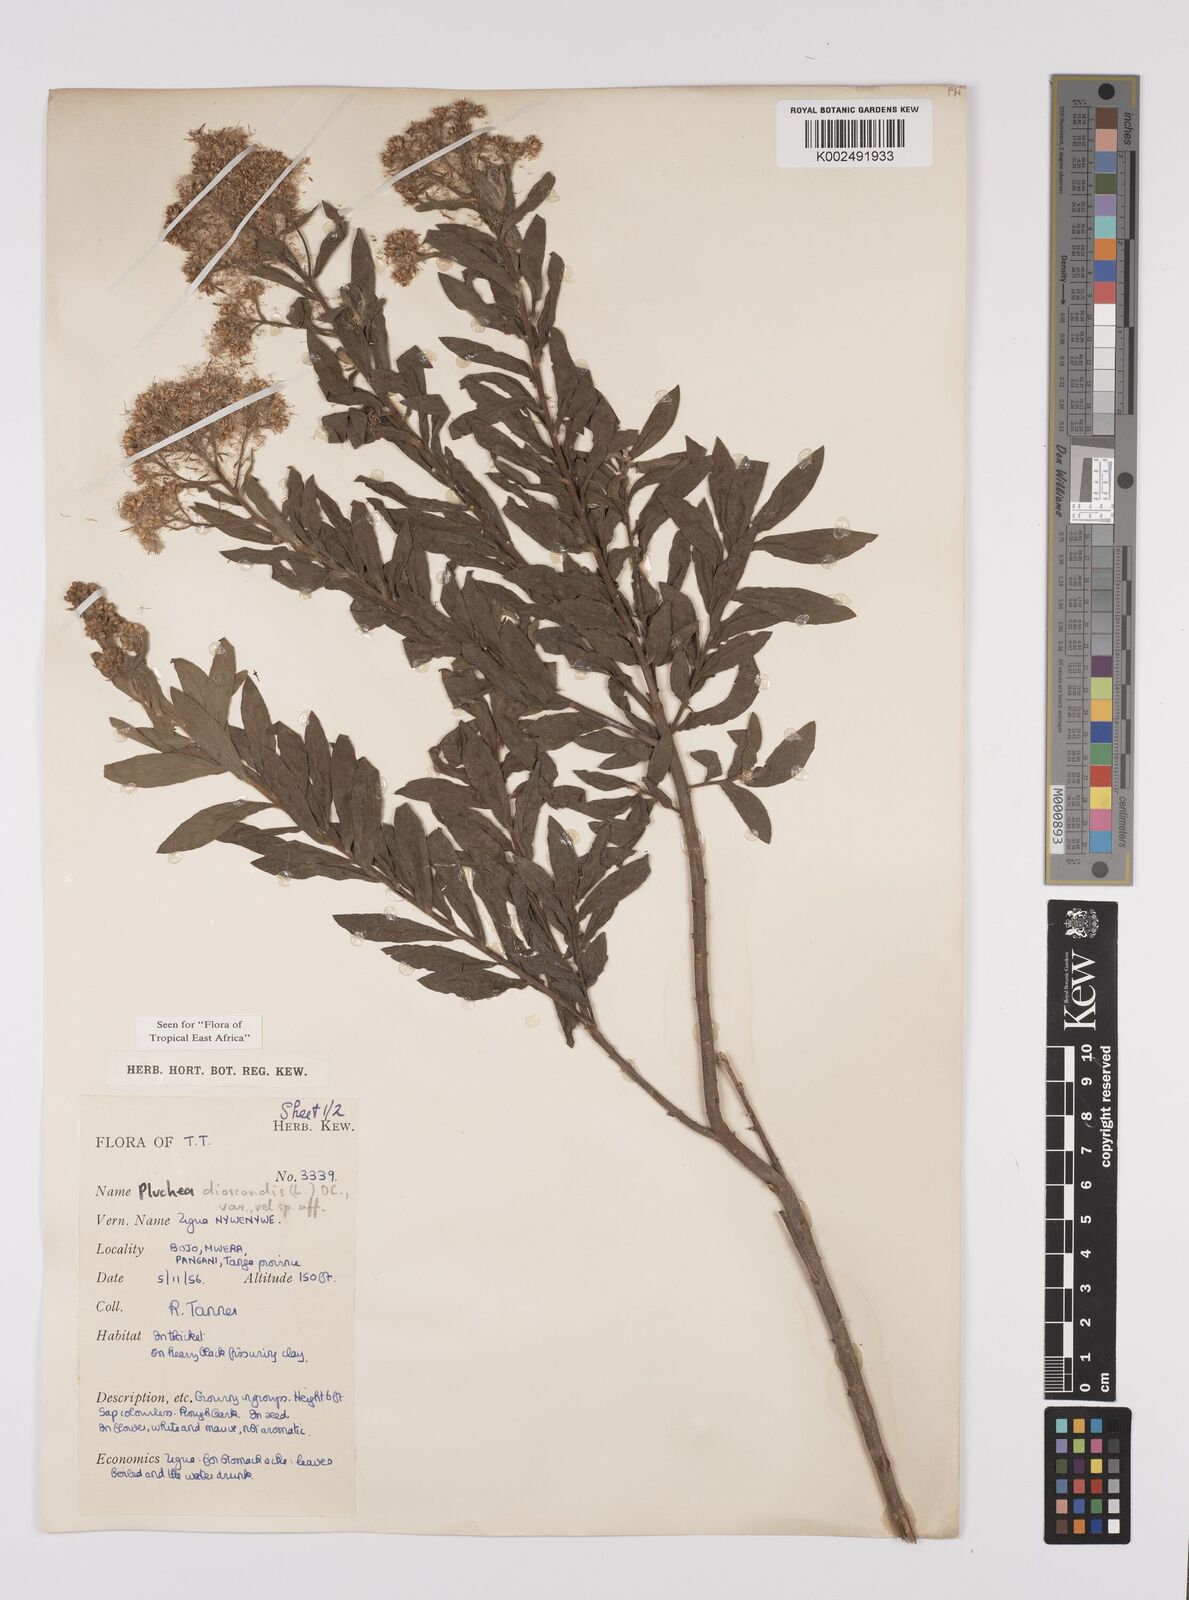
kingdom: Plantae
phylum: Tracheophyta
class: Magnoliopsida
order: Asterales
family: Asteraceae
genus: Pluchea
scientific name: Pluchea dioscoridis
